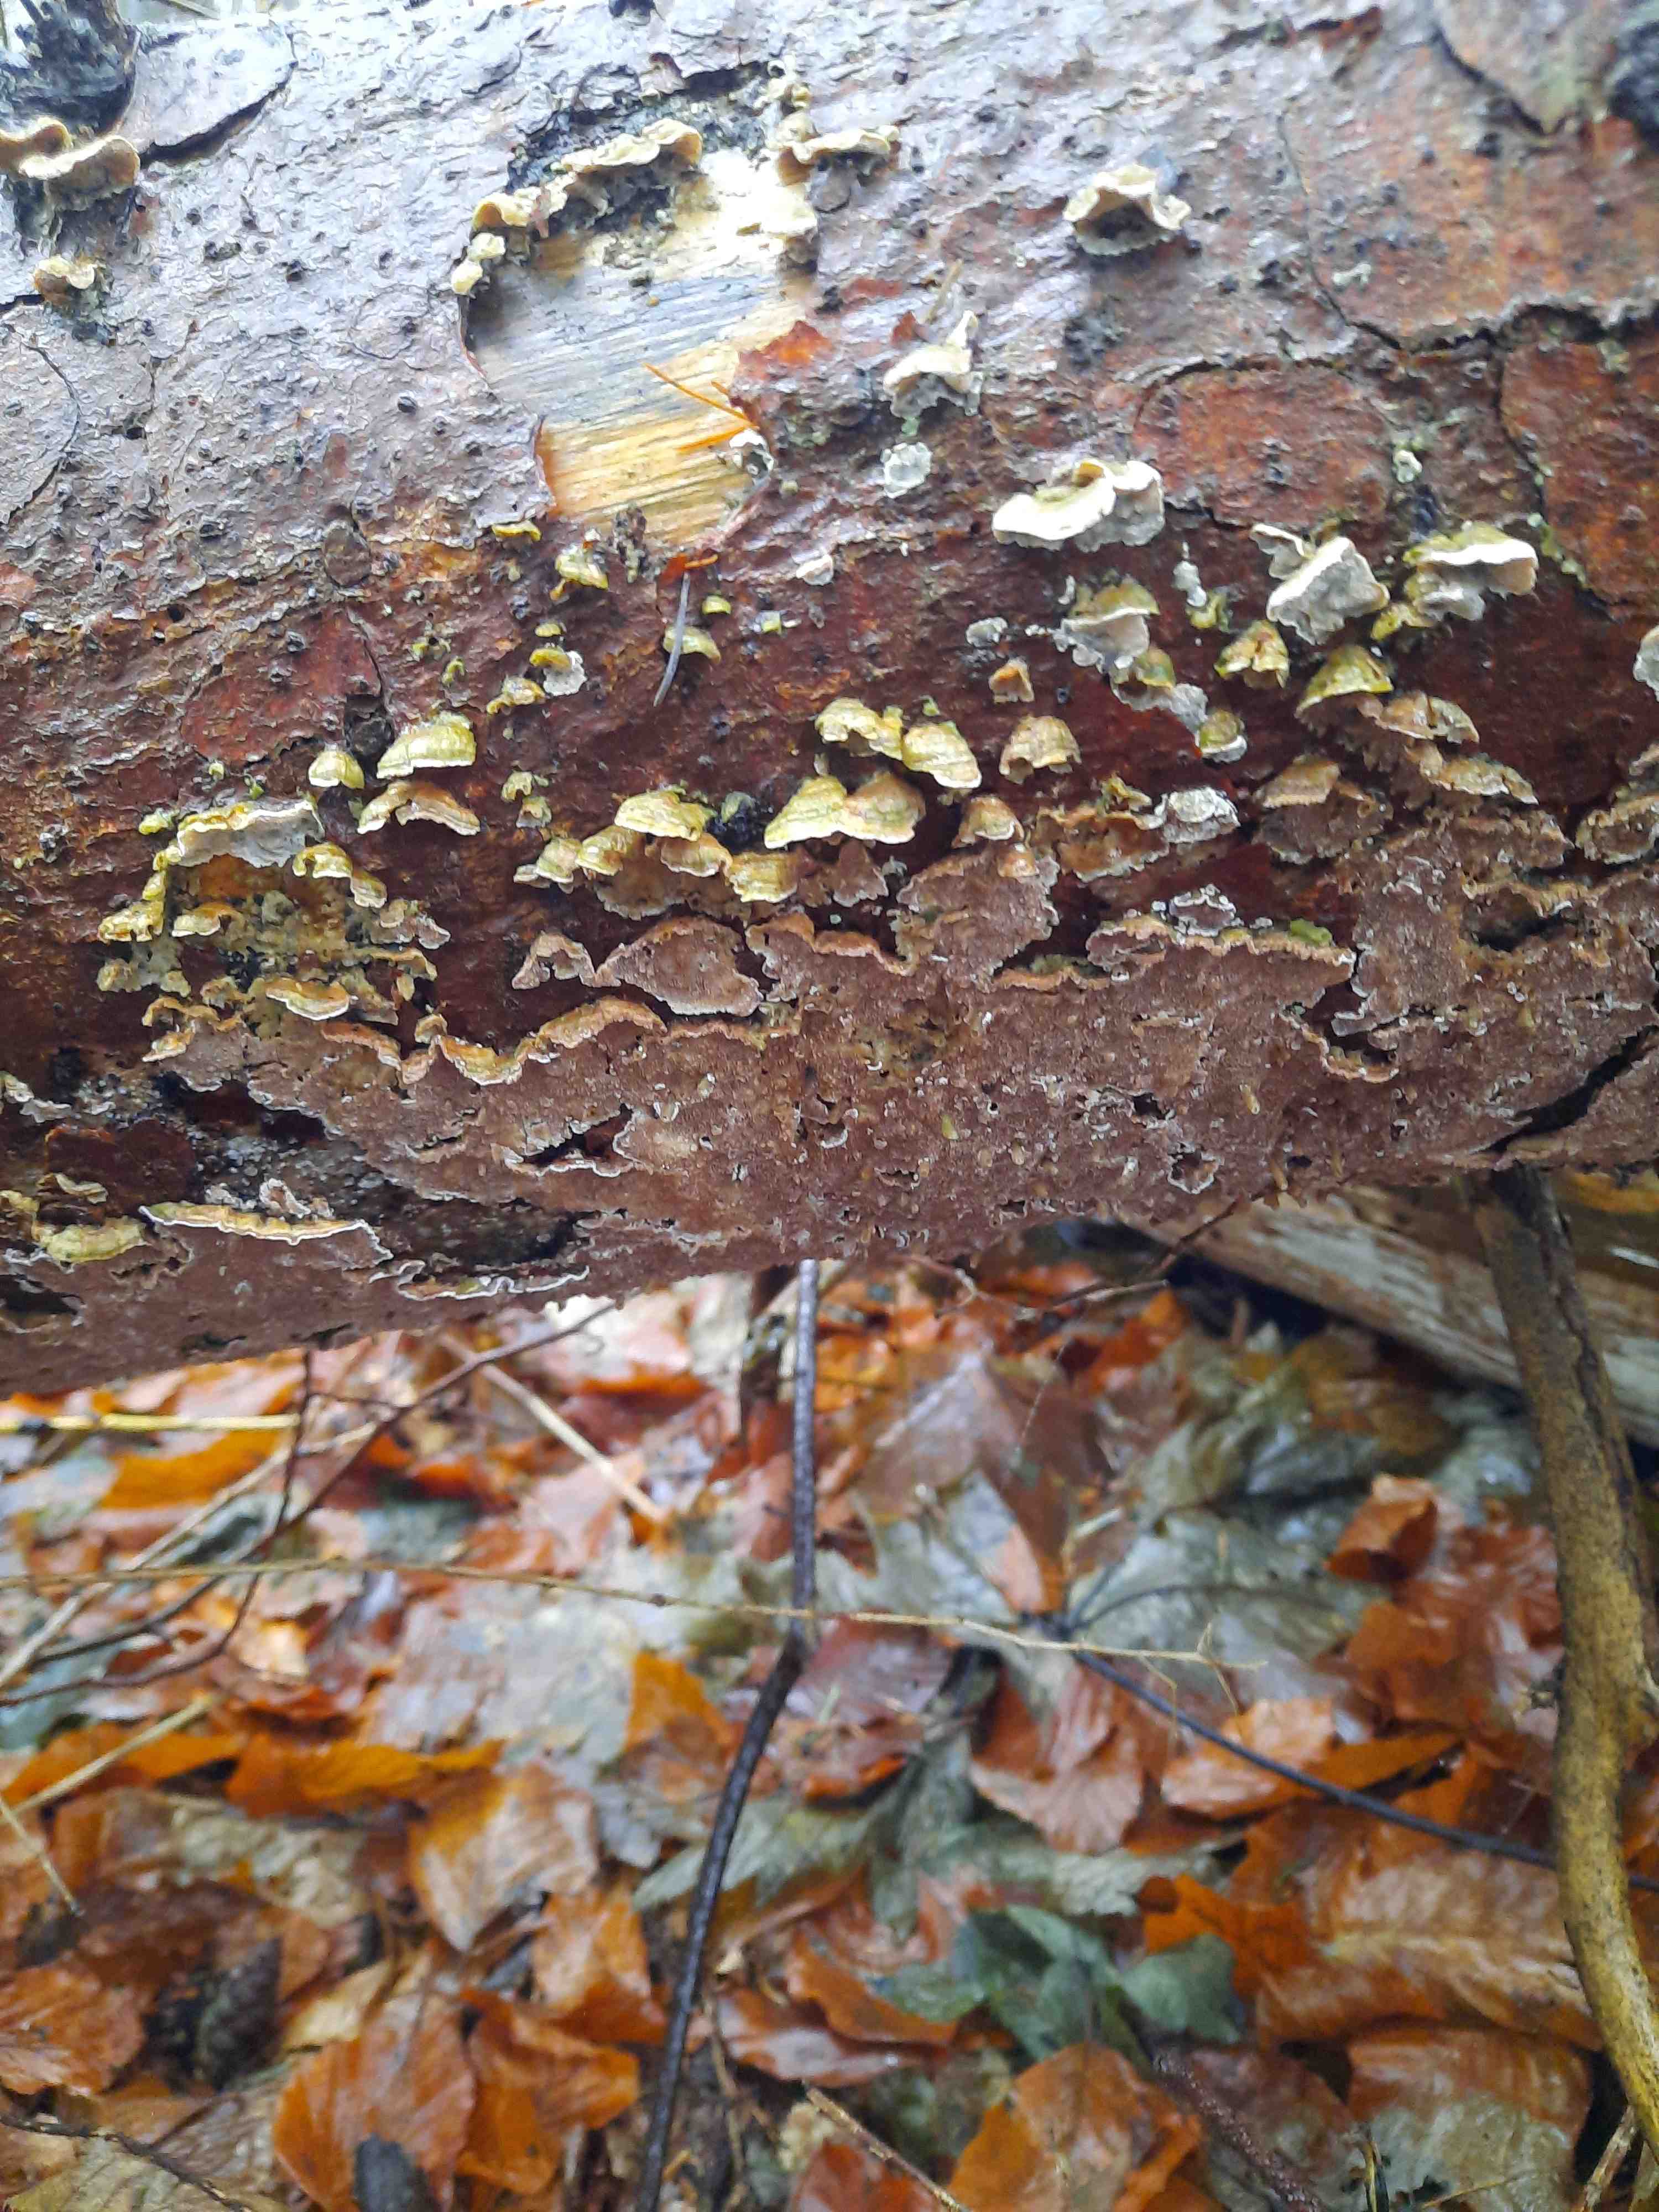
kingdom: Fungi
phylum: Basidiomycota
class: Agaricomycetes
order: Hymenochaetales
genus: Trichaptum
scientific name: Trichaptum abietinum
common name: almindelig violporesvamp
